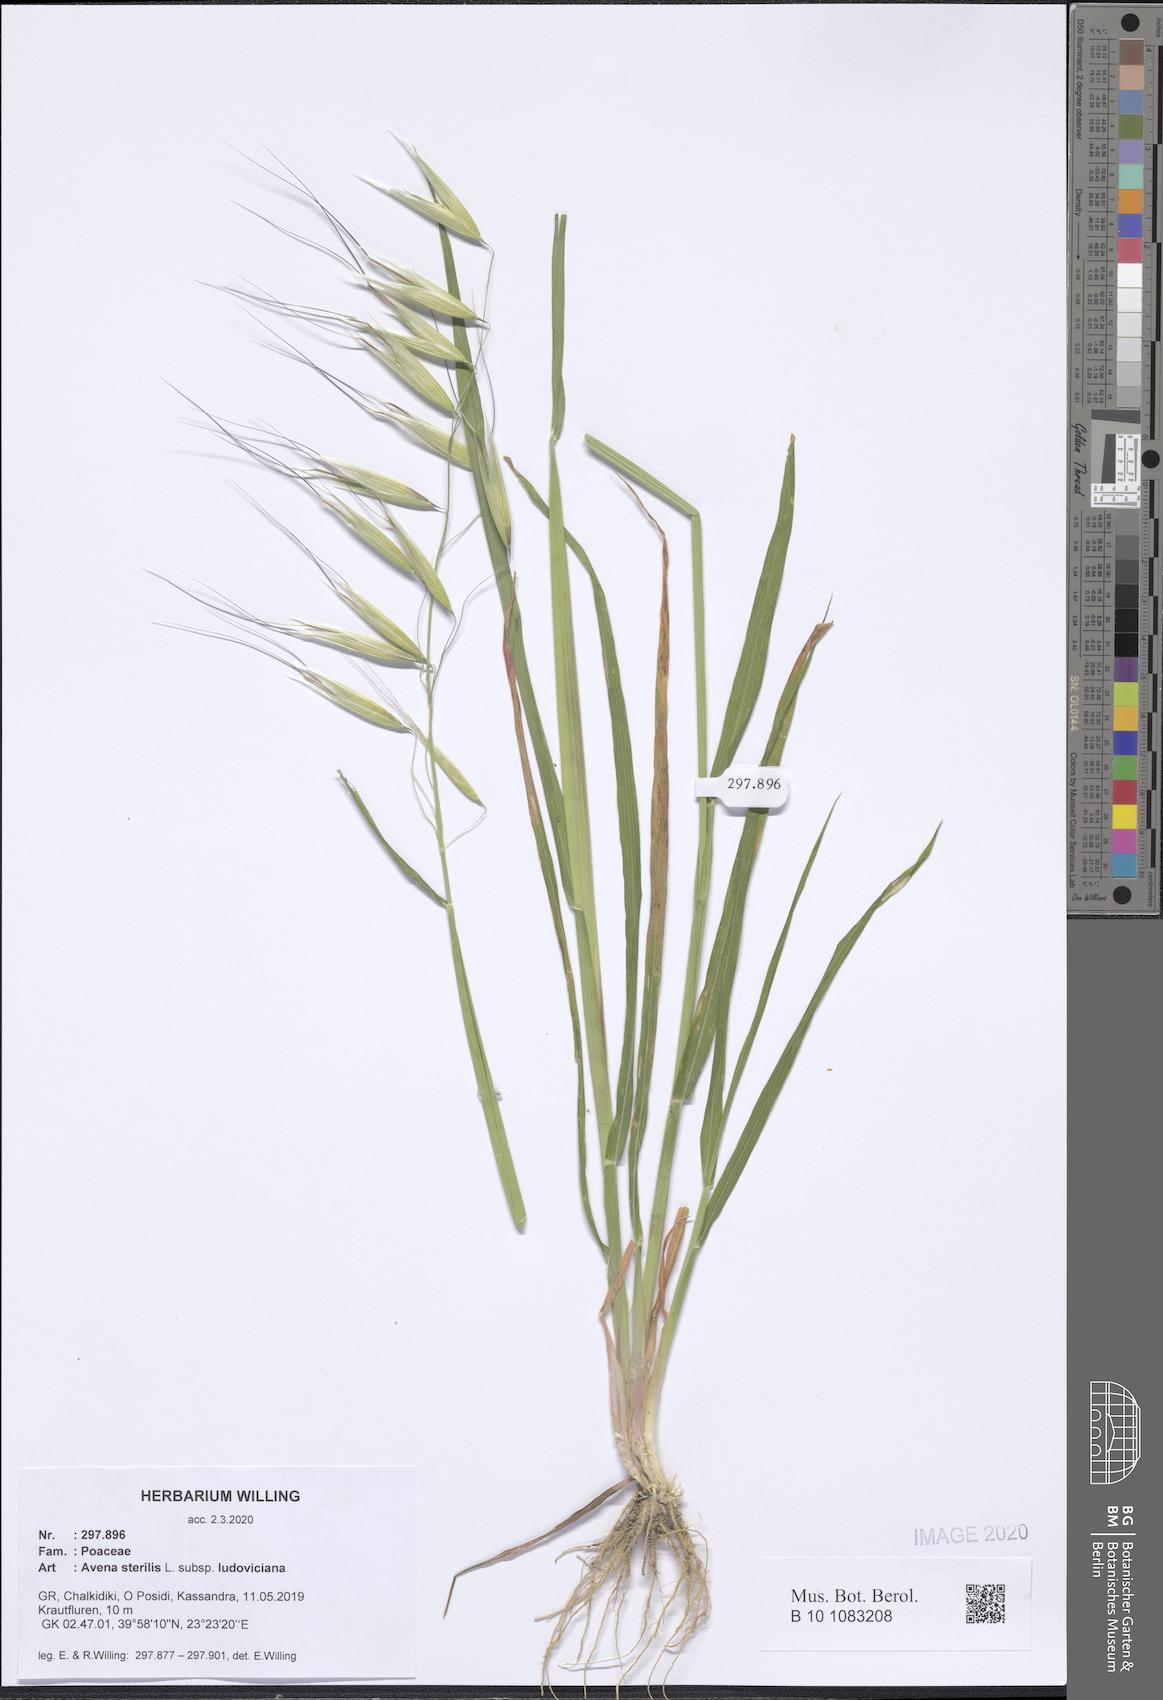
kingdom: Plantae
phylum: Tracheophyta
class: Liliopsida
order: Poales
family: Poaceae
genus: Avena
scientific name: Avena sterilis
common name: Animated oat
